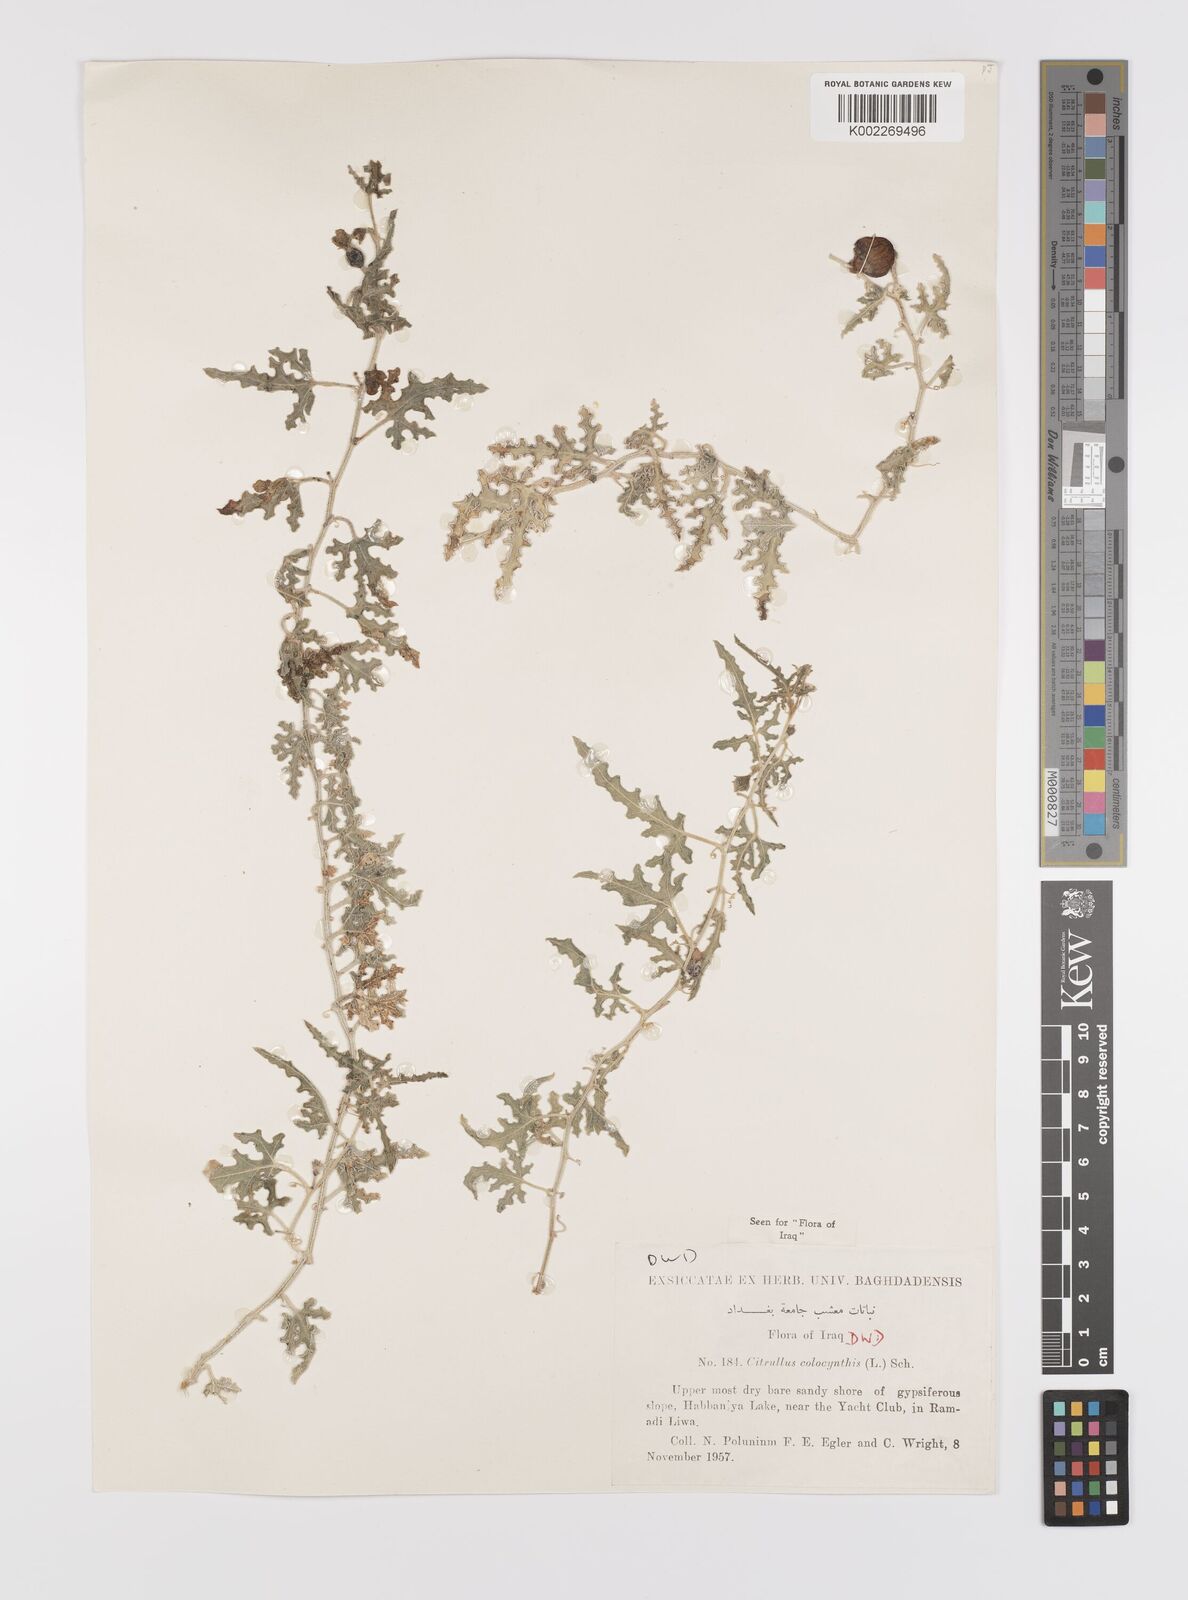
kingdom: Plantae
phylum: Tracheophyta
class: Magnoliopsida
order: Cucurbitales
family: Cucurbitaceae
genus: Citrullus
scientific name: Citrullus colocynthis
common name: Colocynth
